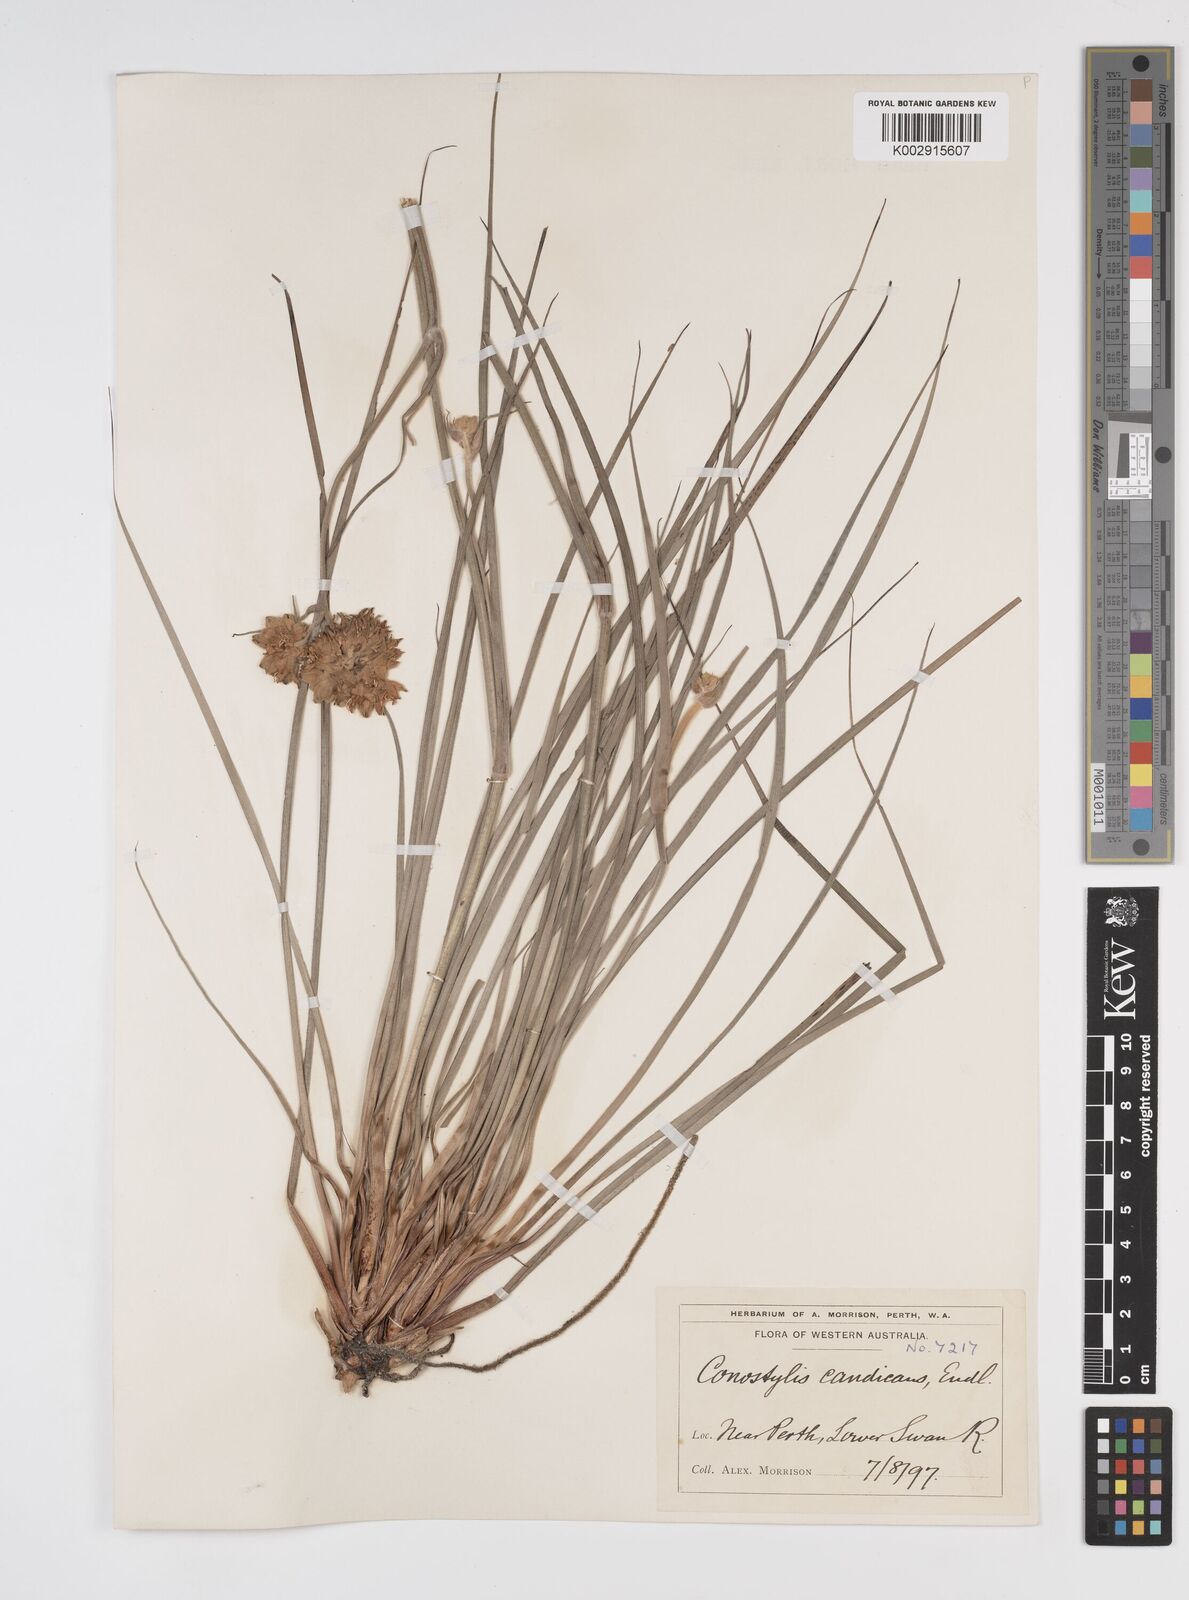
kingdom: Plantae
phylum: Tracheophyta
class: Liliopsida
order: Commelinales
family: Haemodoraceae
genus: Conostylis
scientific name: Conostylis candicans
